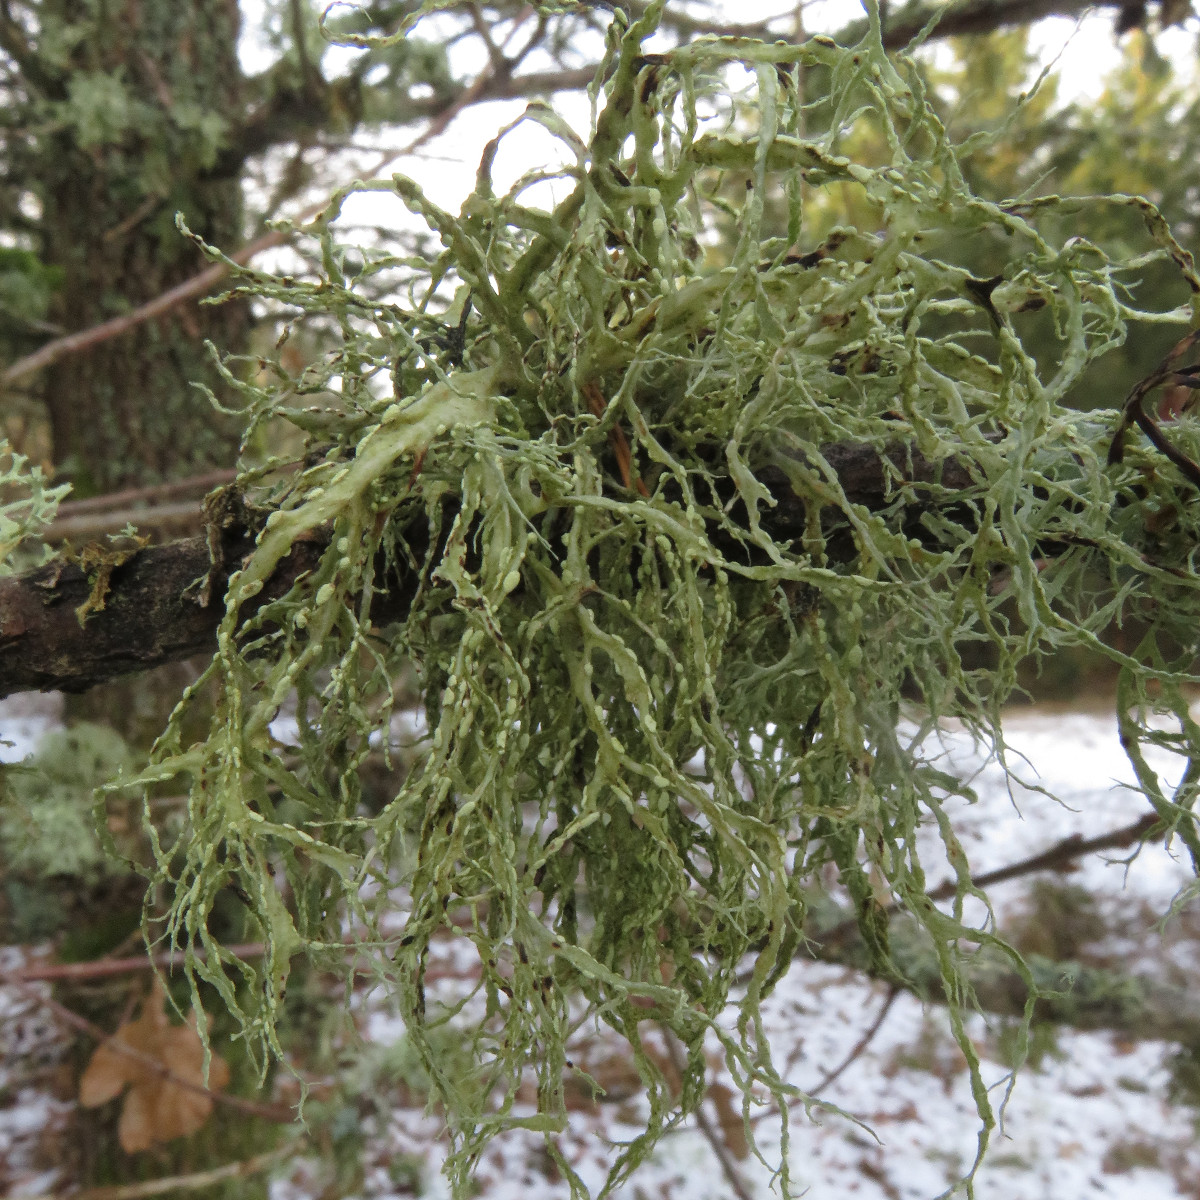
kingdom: Fungi
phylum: Ascomycota
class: Lecanoromycetes
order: Lecanorales
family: Ramalinaceae
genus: Ramalina
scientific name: Ramalina farinacea
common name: melet grenlav
